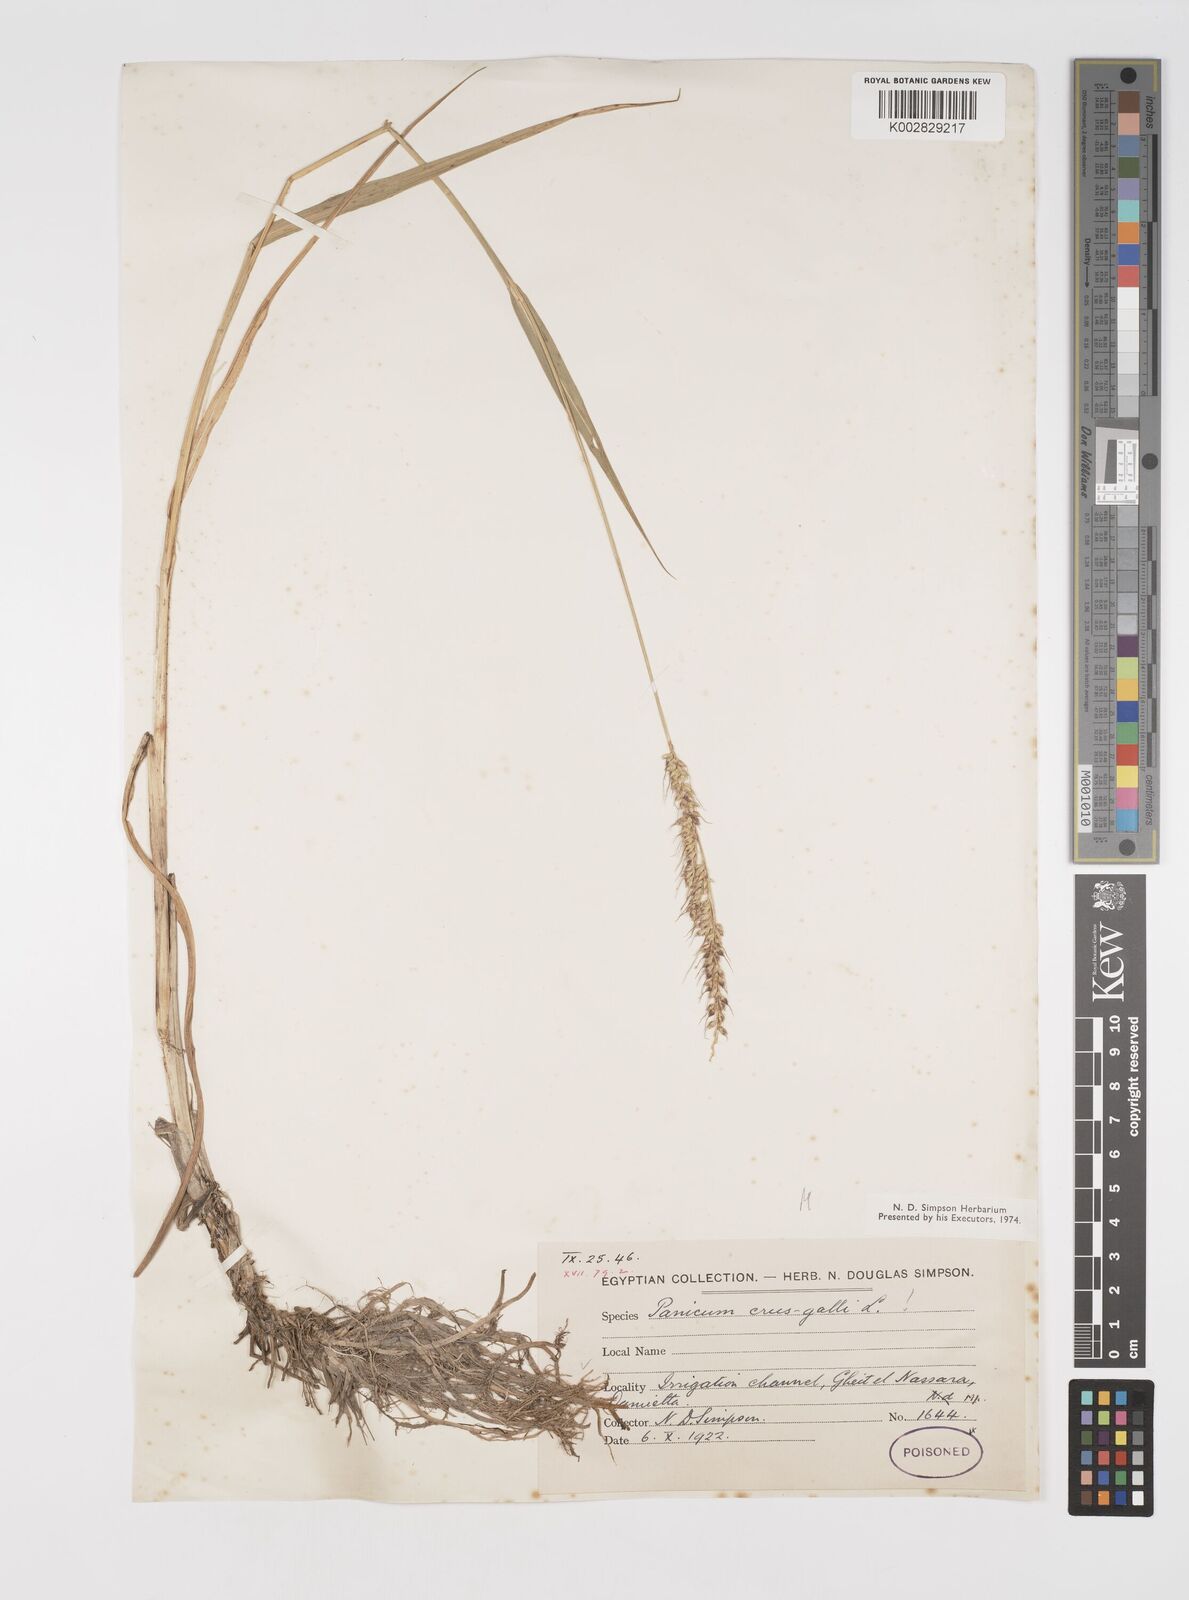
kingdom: Plantae
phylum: Tracheophyta
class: Liliopsida
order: Poales
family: Poaceae
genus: Echinochloa
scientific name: Echinochloa crus-galli
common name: Cockspur
